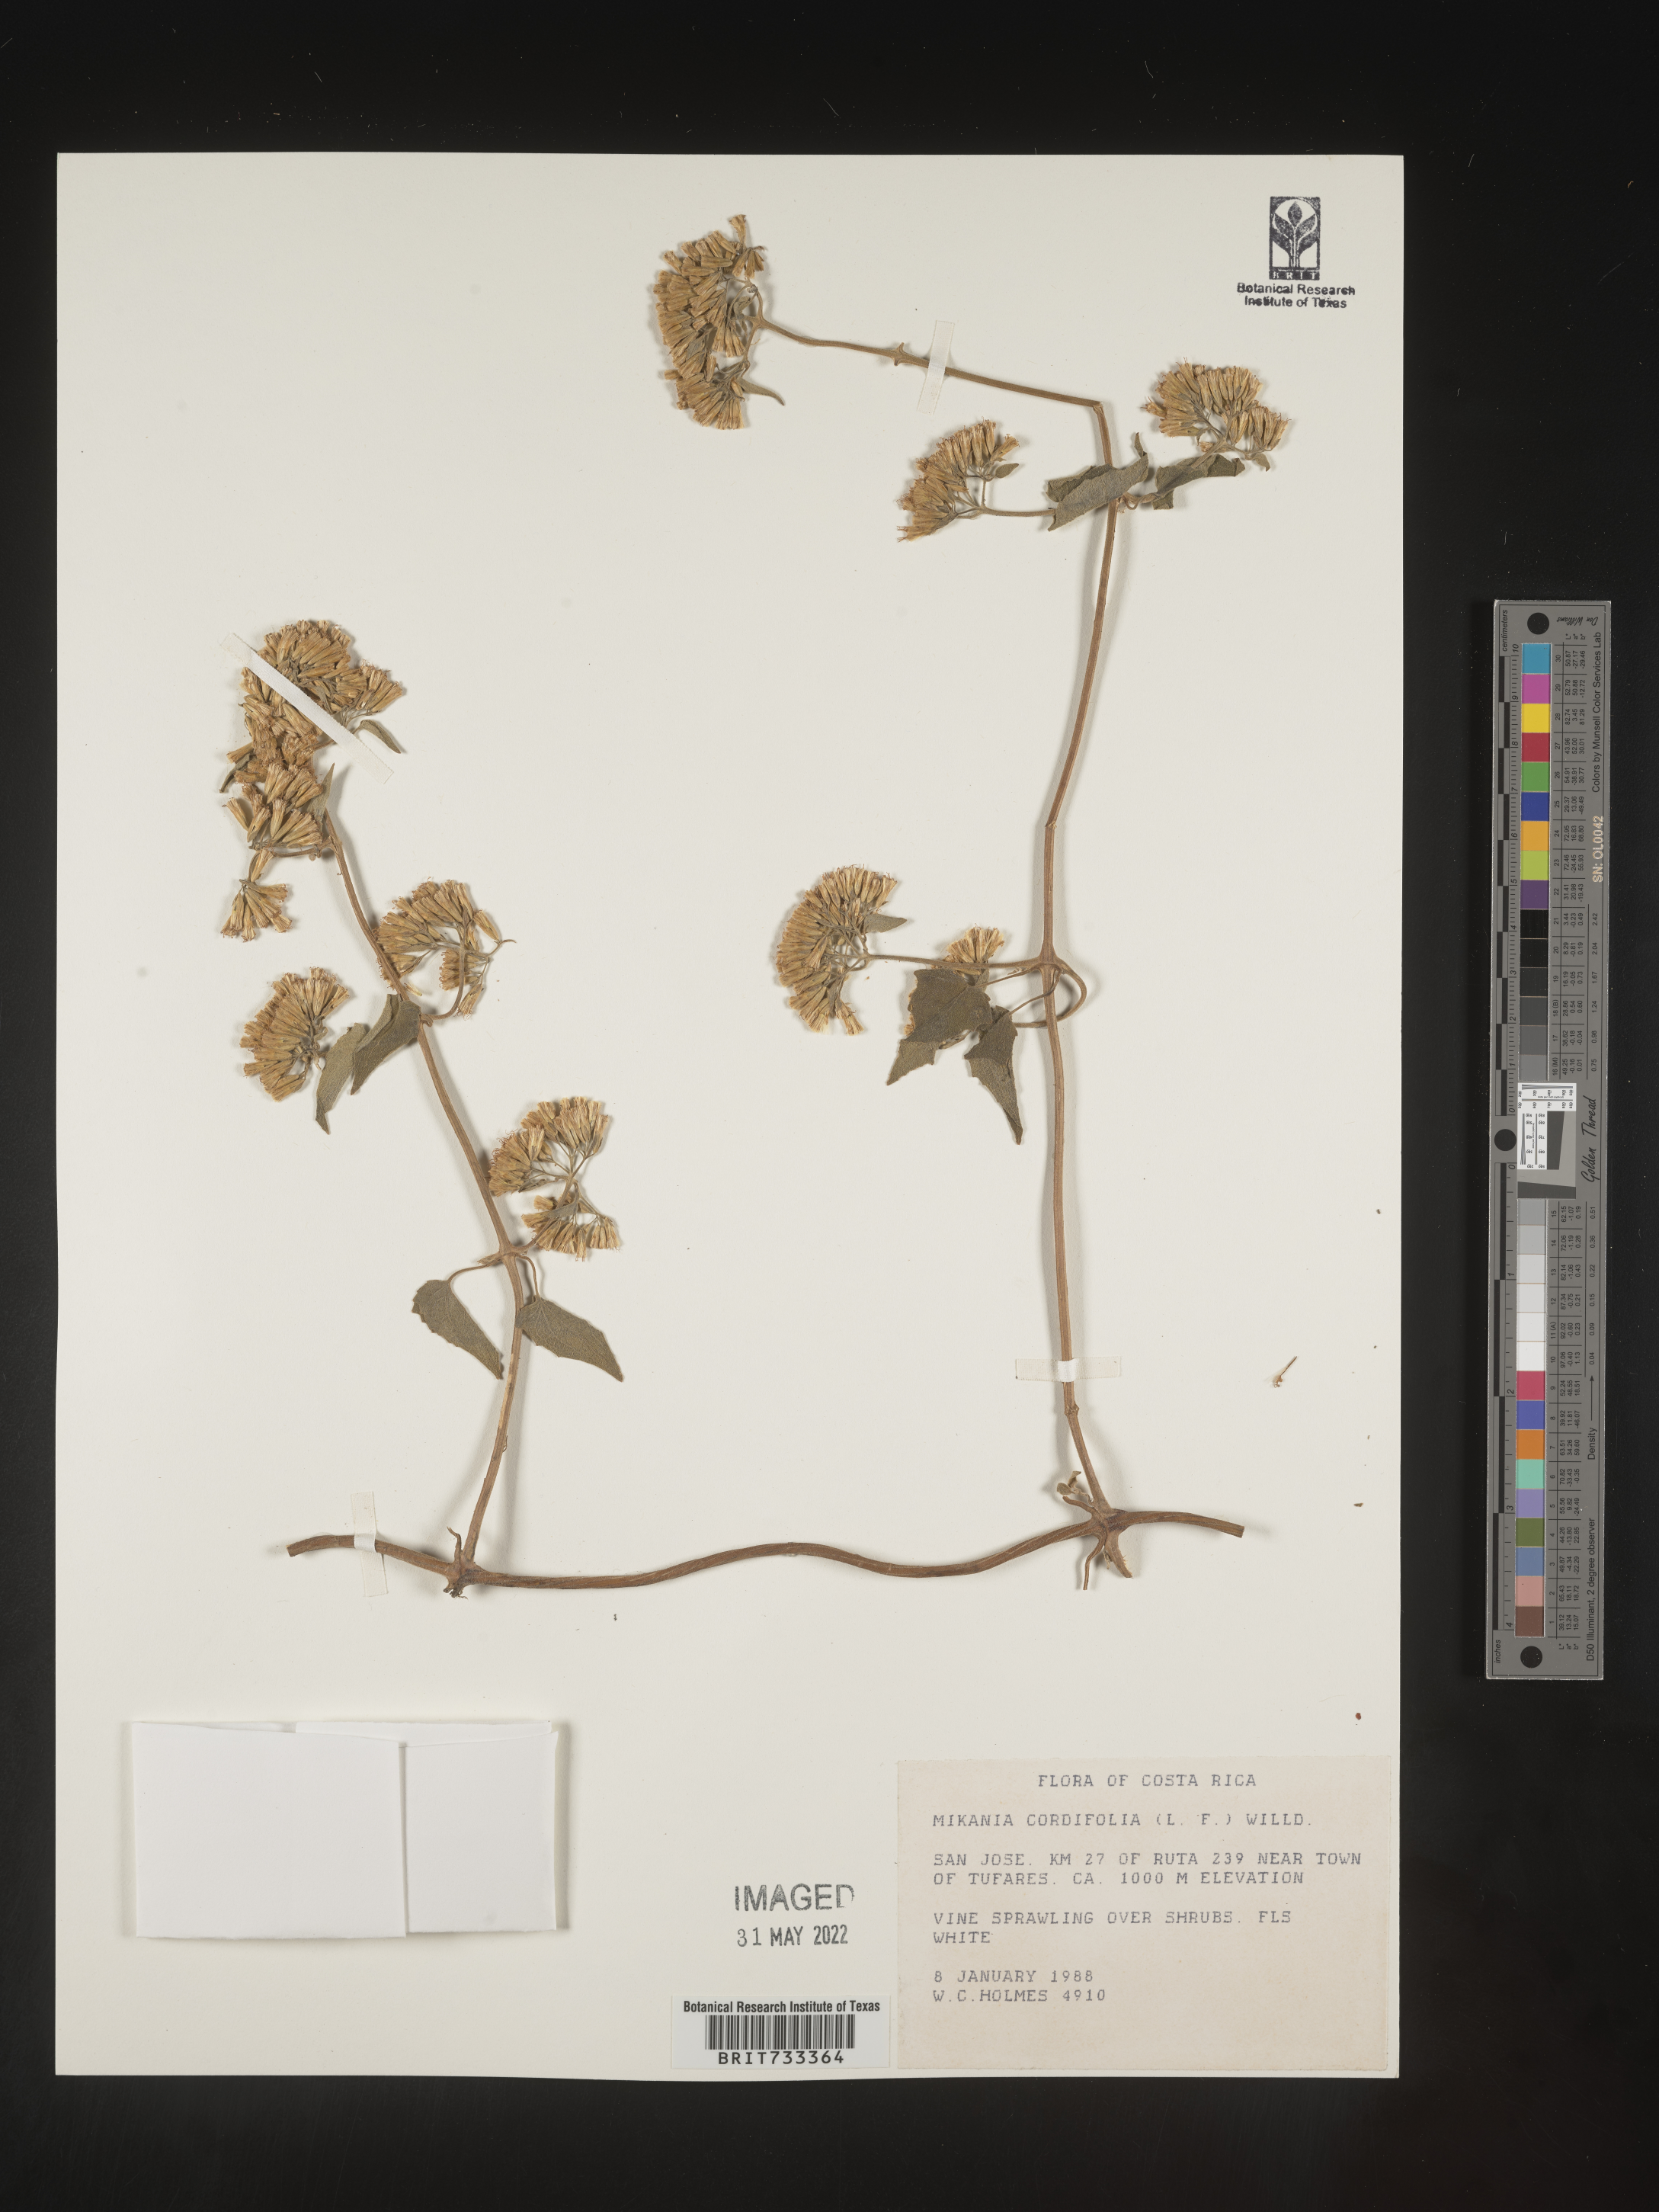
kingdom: Plantae
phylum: Tracheophyta
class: Magnoliopsida
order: Asterales
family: Asteraceae
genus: Mikania
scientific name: Mikania
